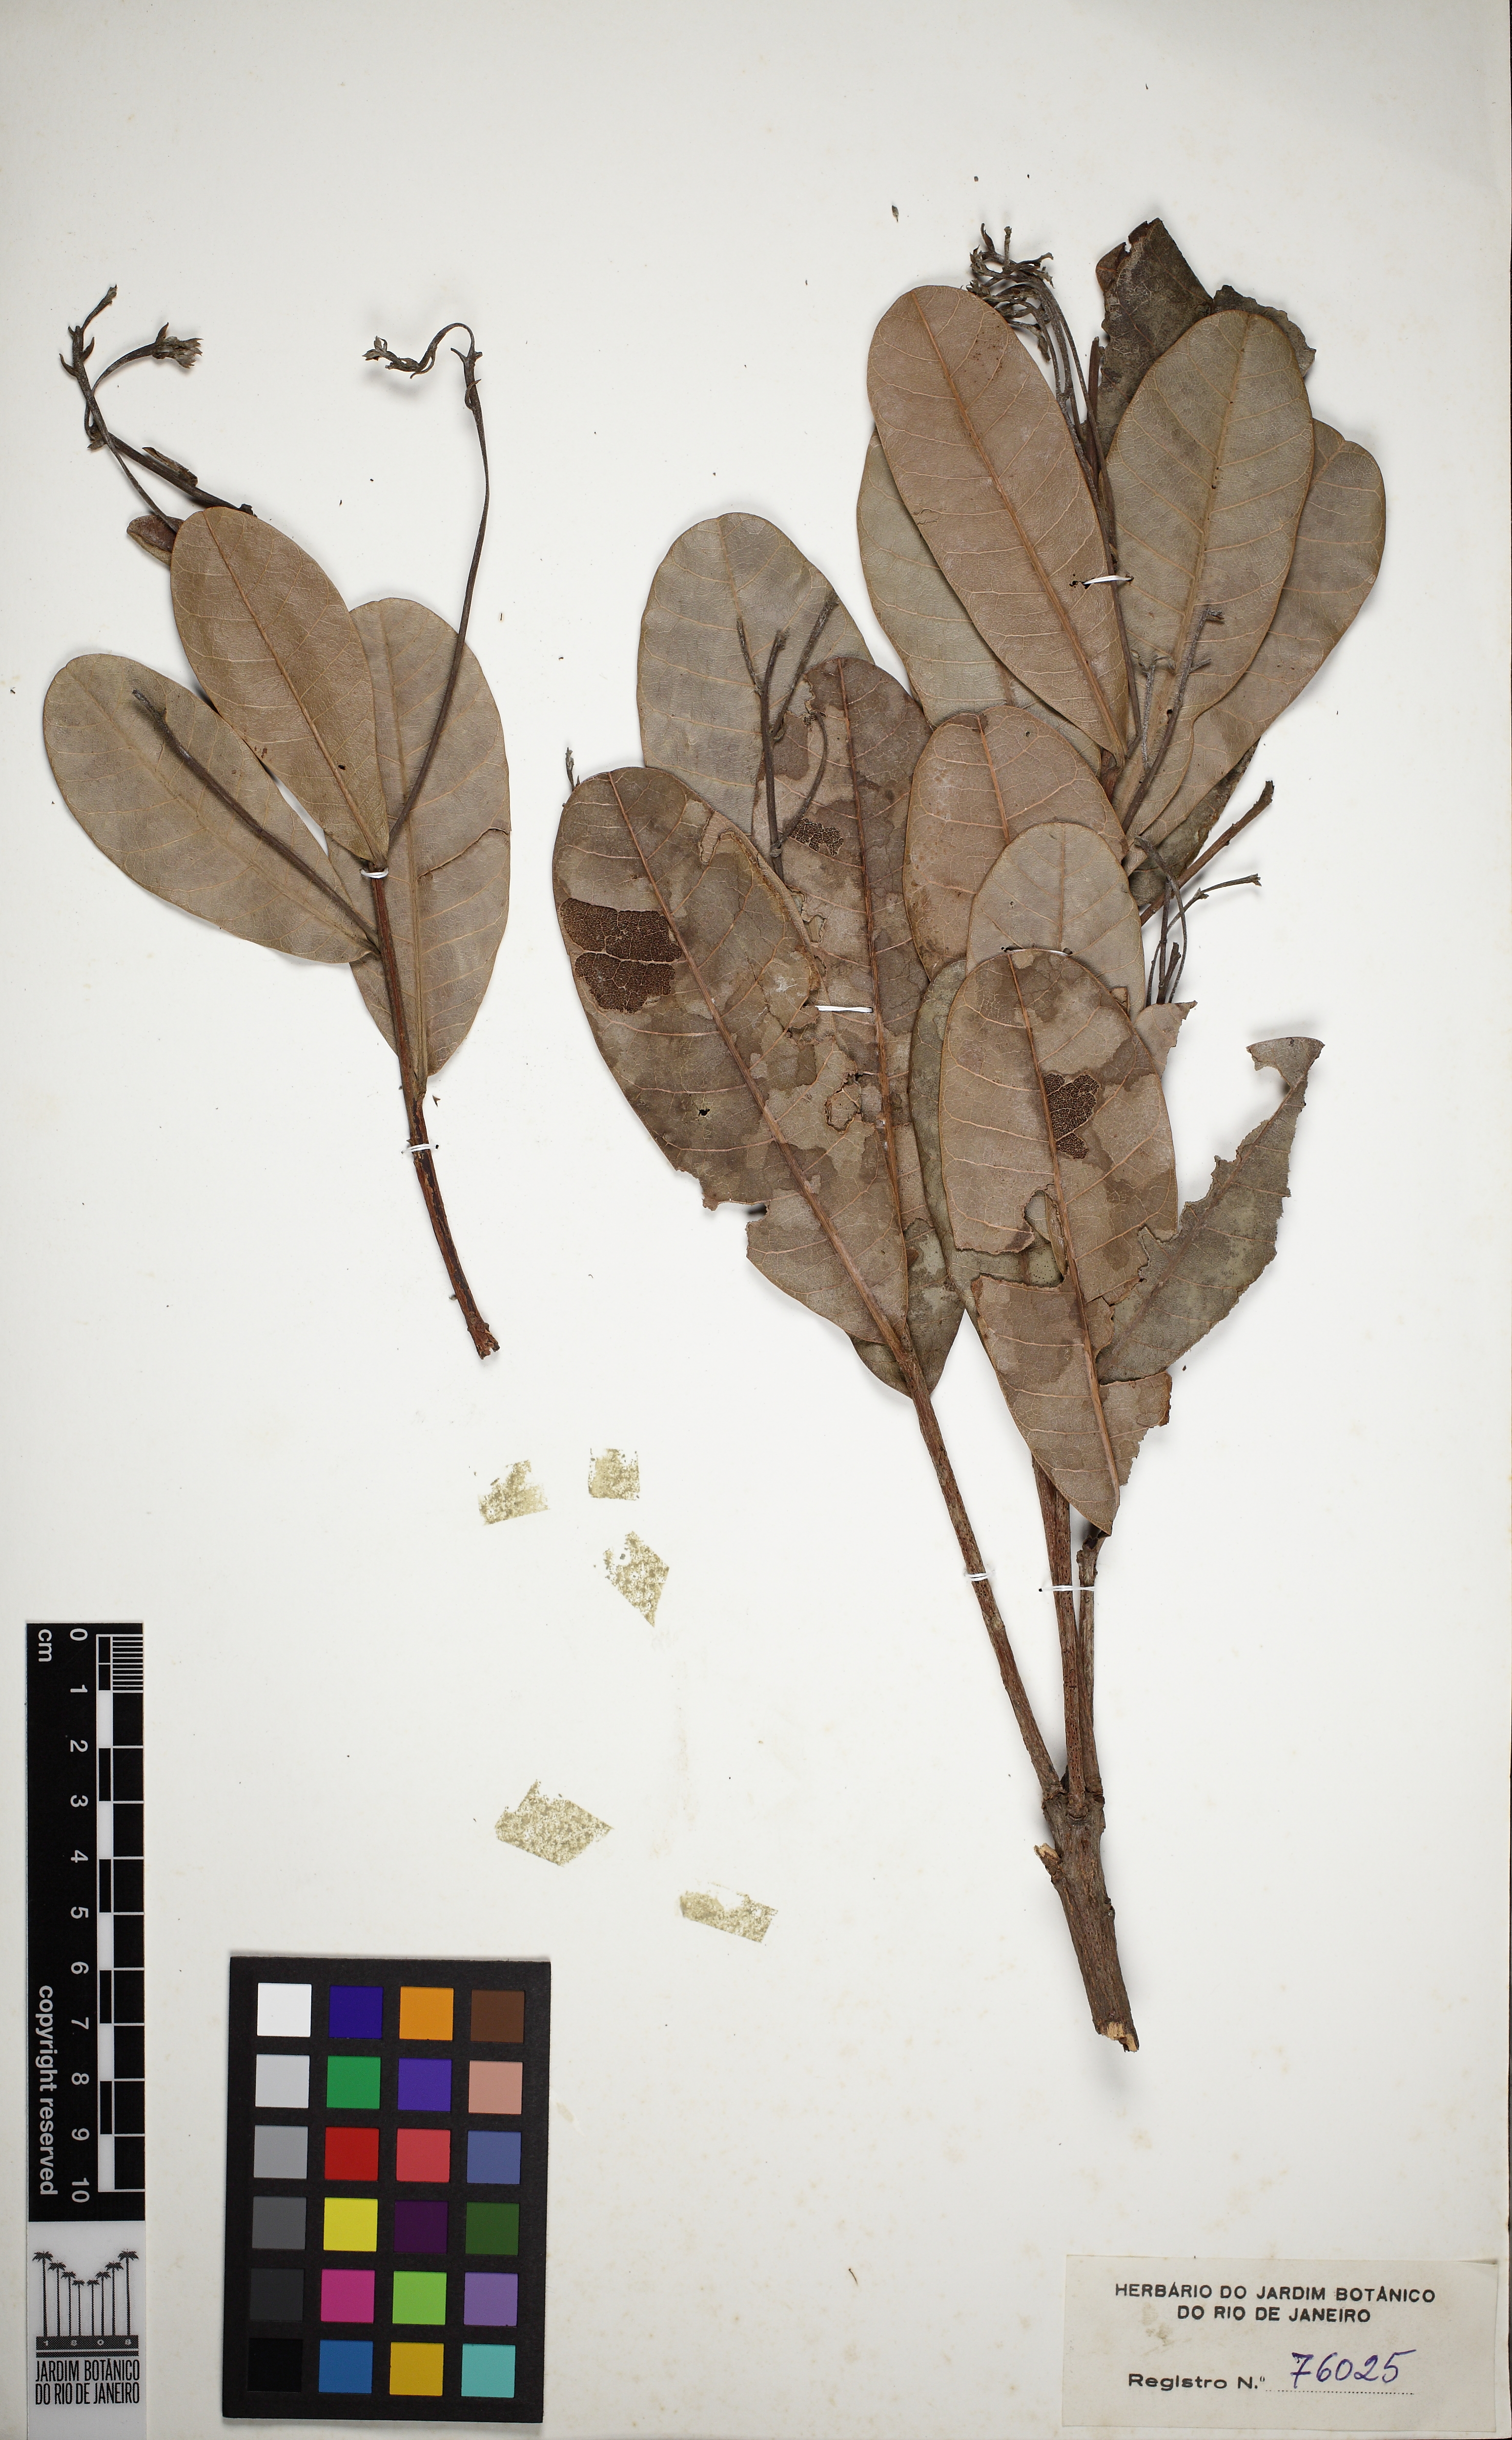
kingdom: Plantae
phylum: Tracheophyta
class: Magnoliopsida
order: Sapindales
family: Anacardiaceae
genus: Anacardium
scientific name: Anacardium humile
